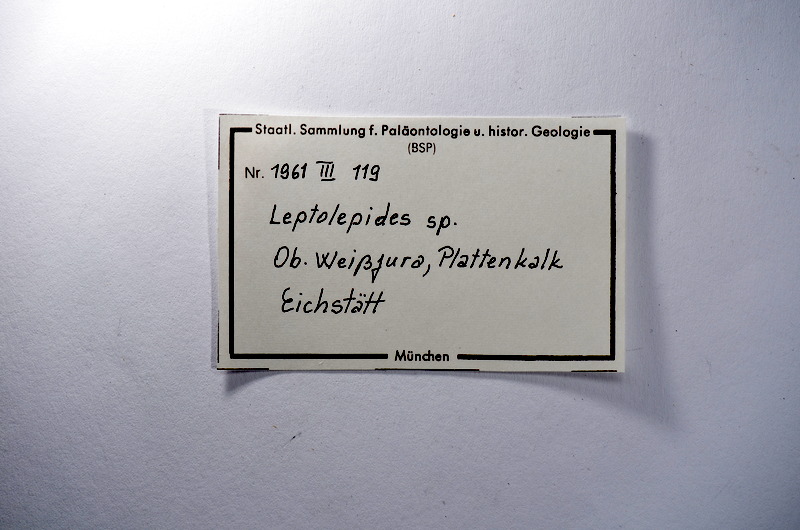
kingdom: Animalia
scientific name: Animalia
